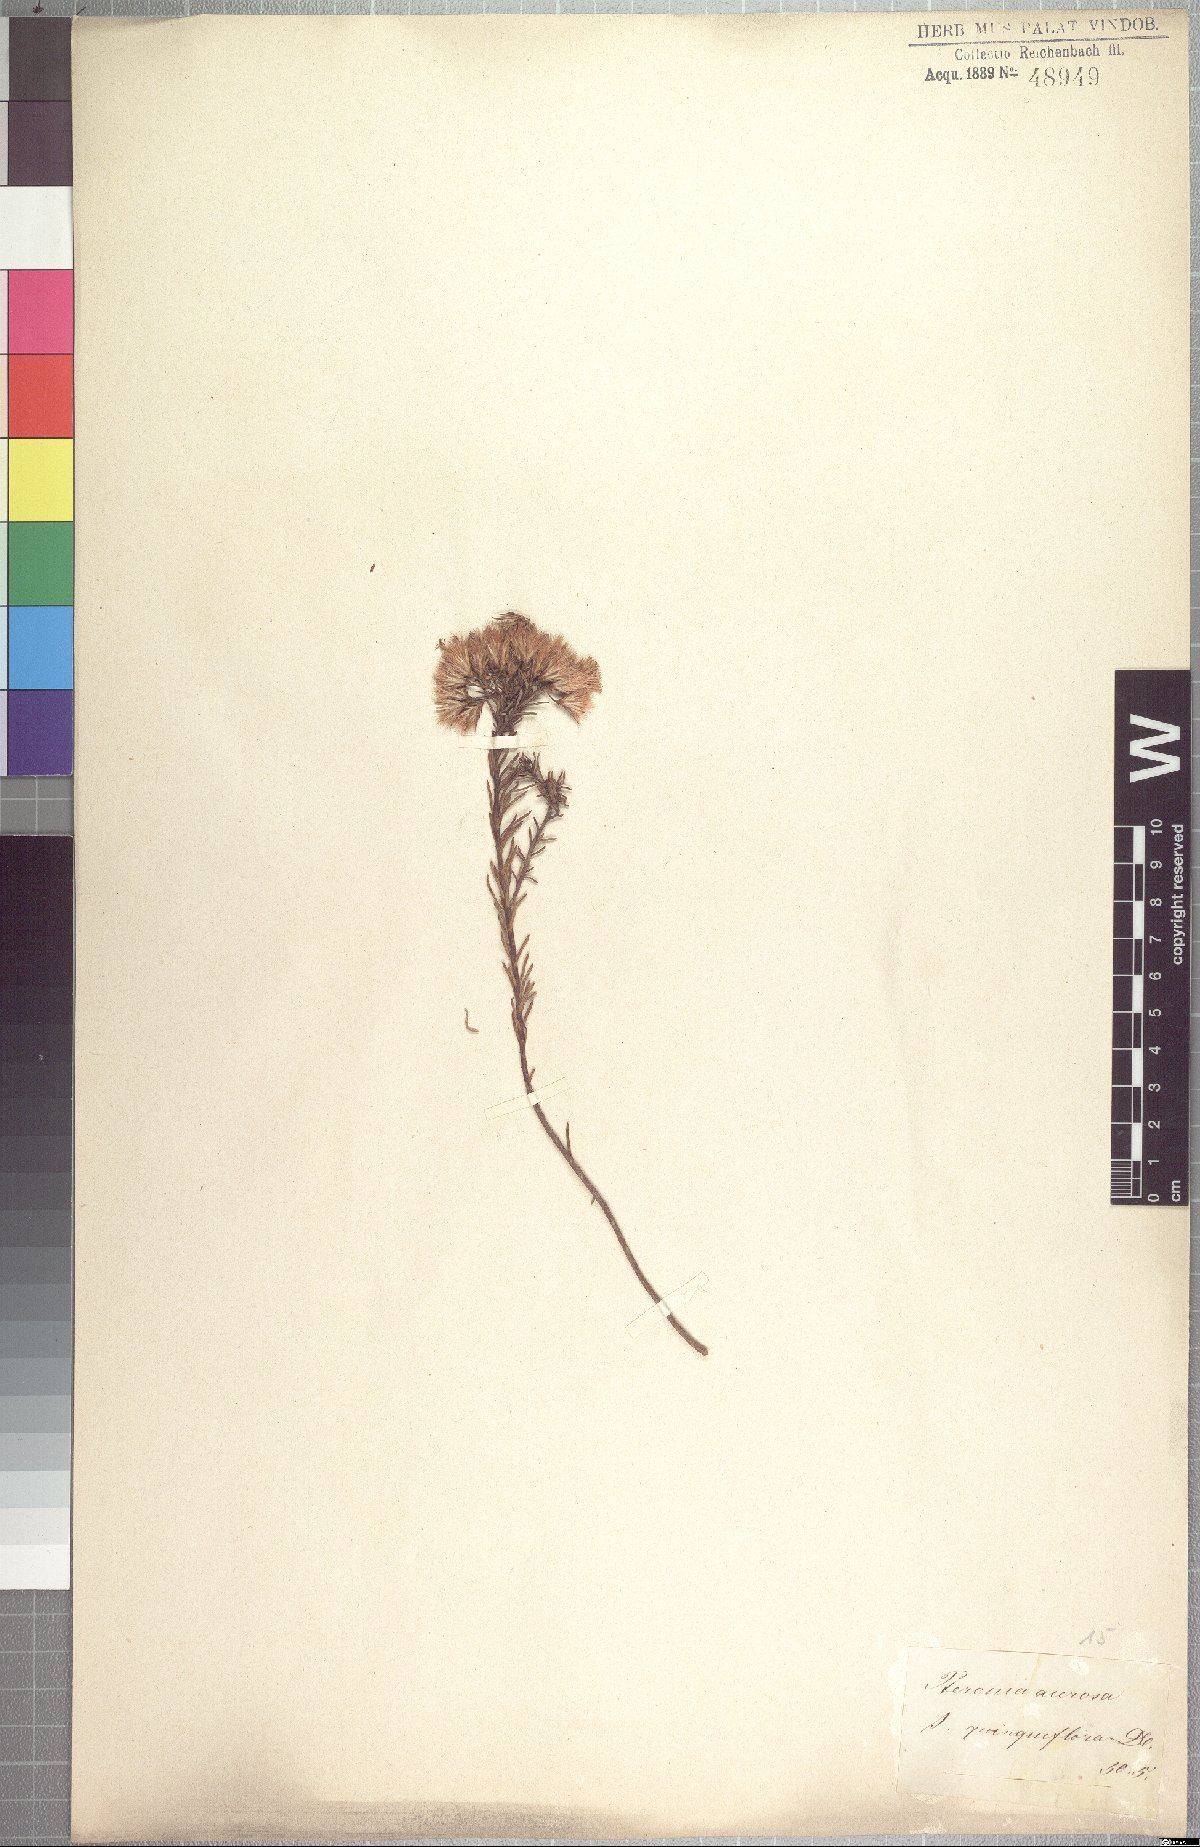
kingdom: Plantae
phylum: Tracheophyta
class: Magnoliopsida
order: Asterales
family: Asteraceae
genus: Pteronia
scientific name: Pteronia teretifolia
